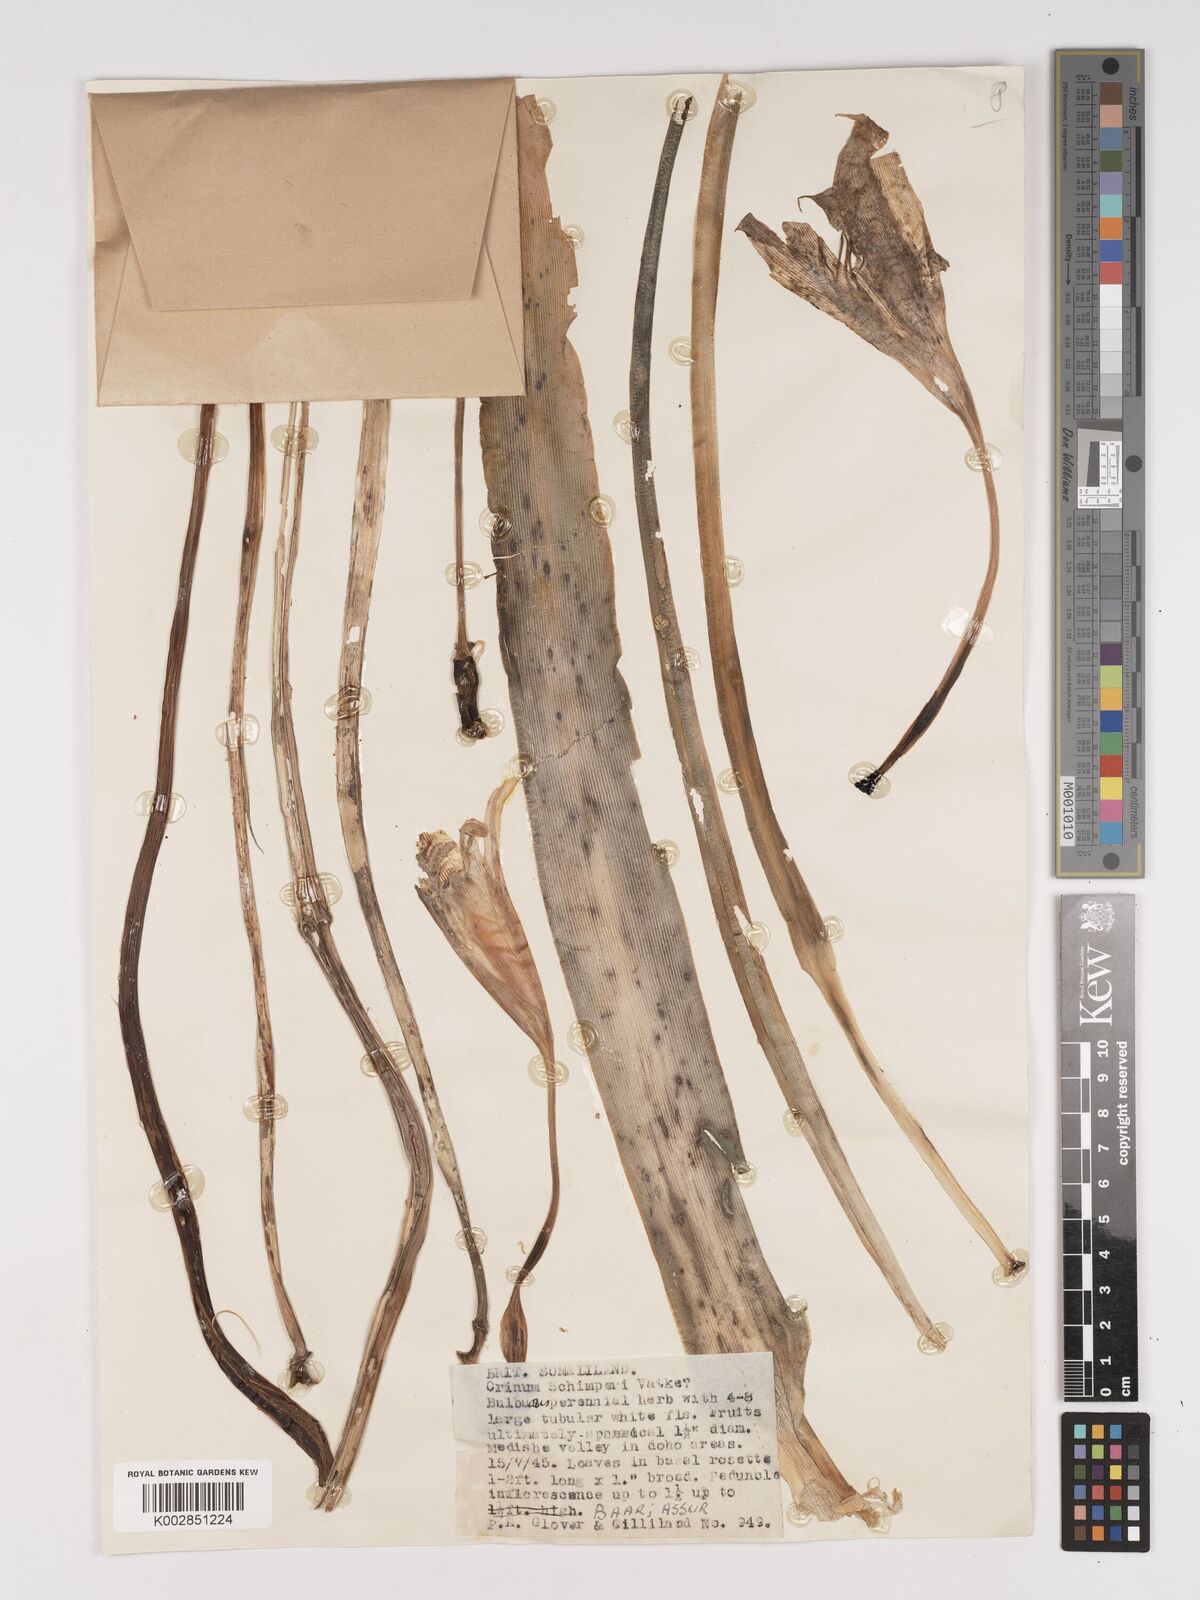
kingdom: Plantae
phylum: Tracheophyta
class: Liliopsida
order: Asparagales
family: Amaryllidaceae
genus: Crinum
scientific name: Crinum abyssinicum
